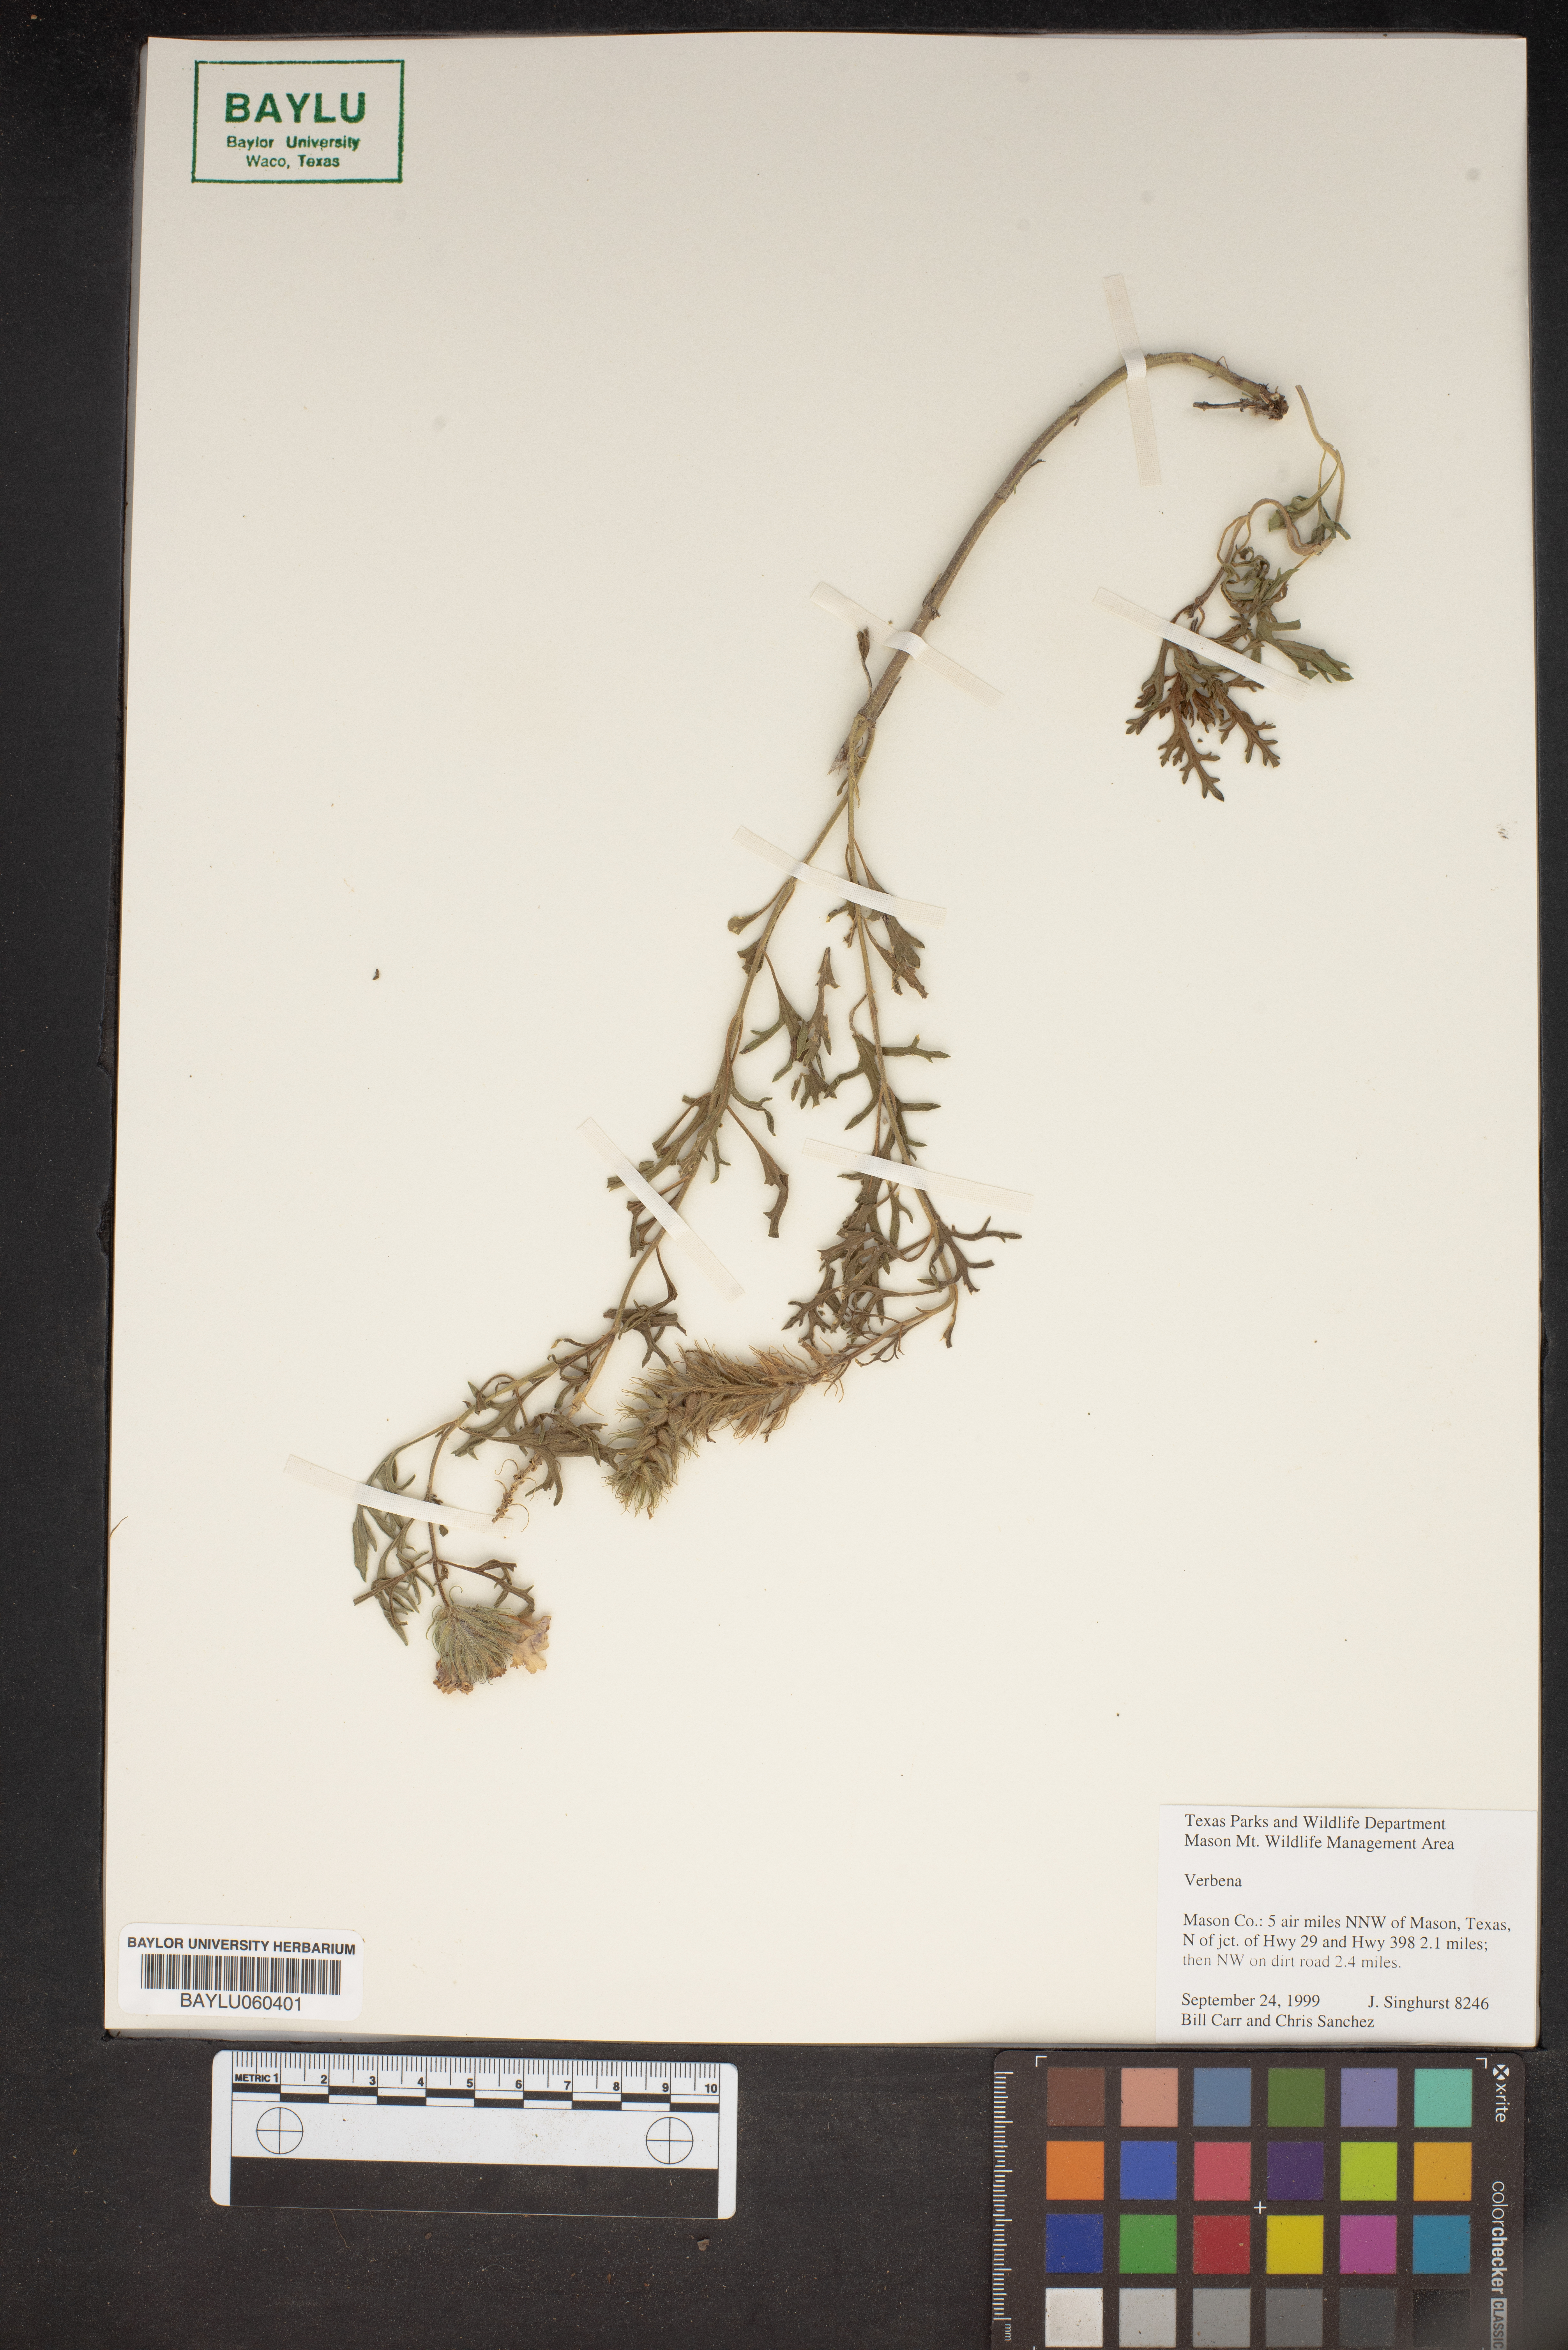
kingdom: Plantae
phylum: Tracheophyta
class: Magnoliopsida
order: Lamiales
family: Verbenaceae
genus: Verbena
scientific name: Verbena
